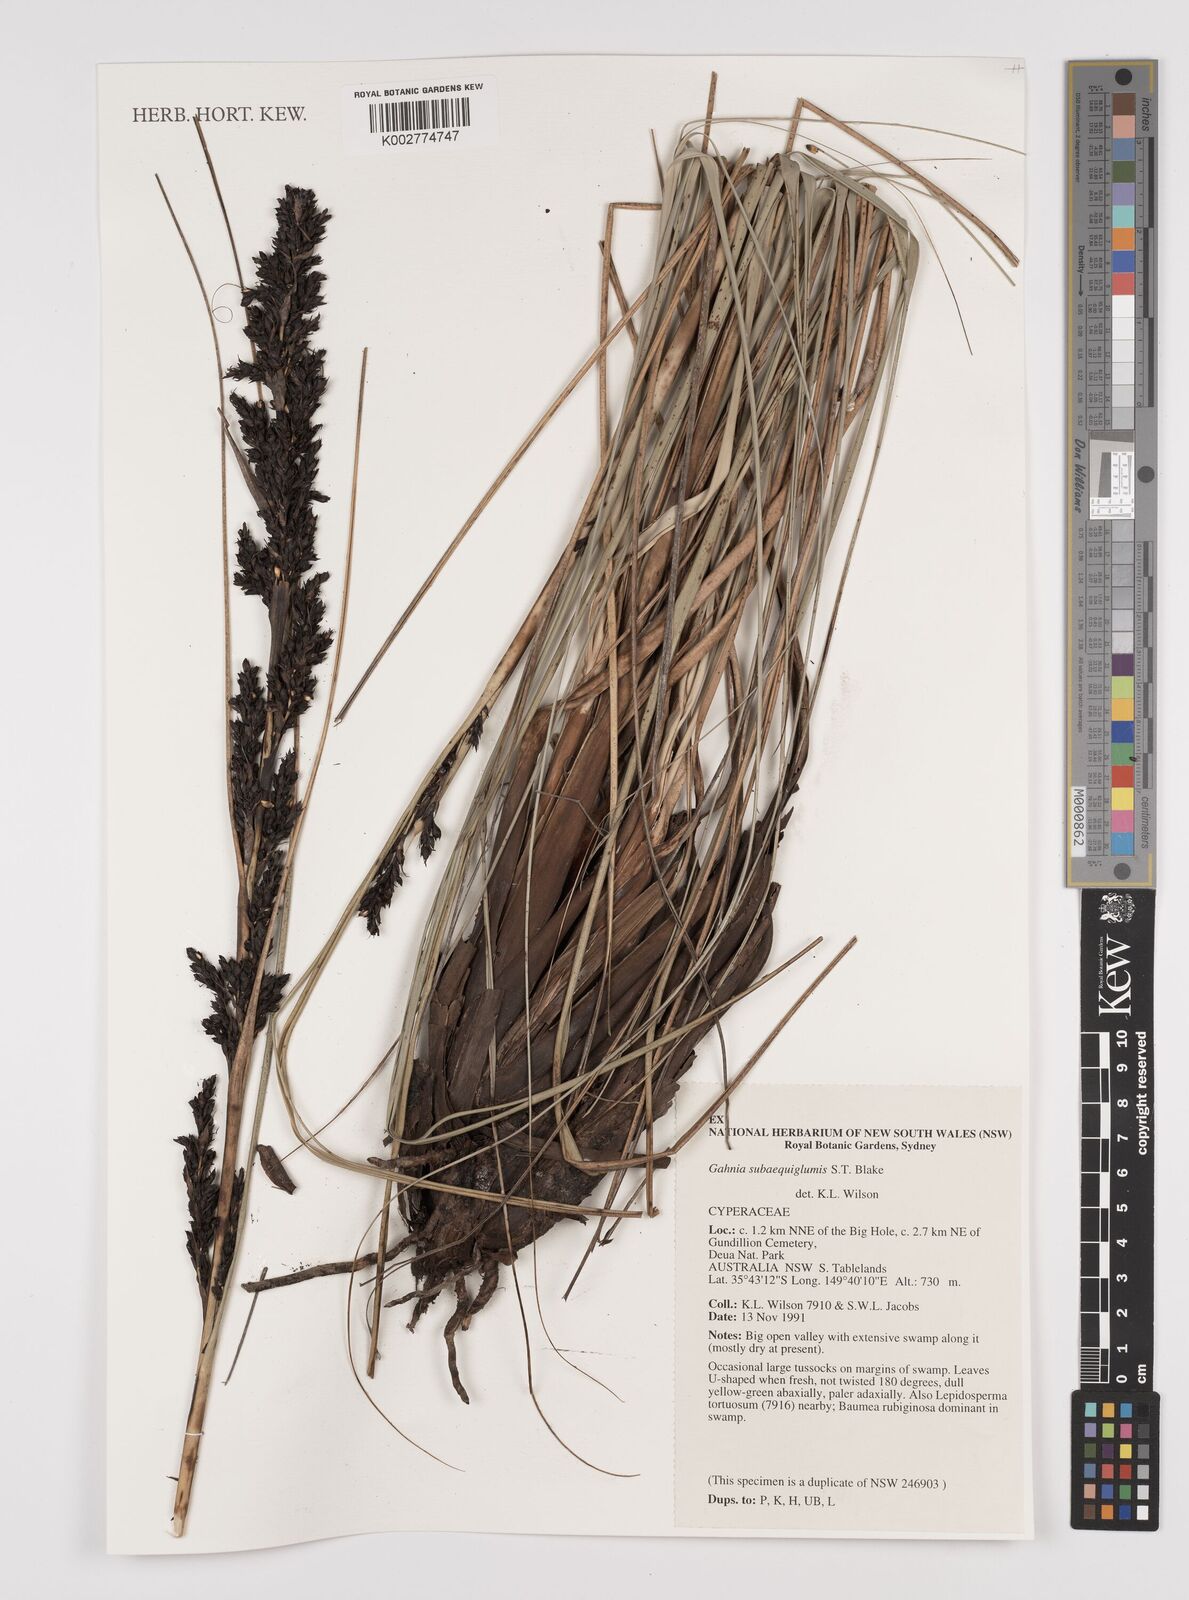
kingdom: Plantae
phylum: Tracheophyta
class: Liliopsida
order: Poales
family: Cyperaceae
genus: Gahnia
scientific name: Gahnia subaequiglumis
